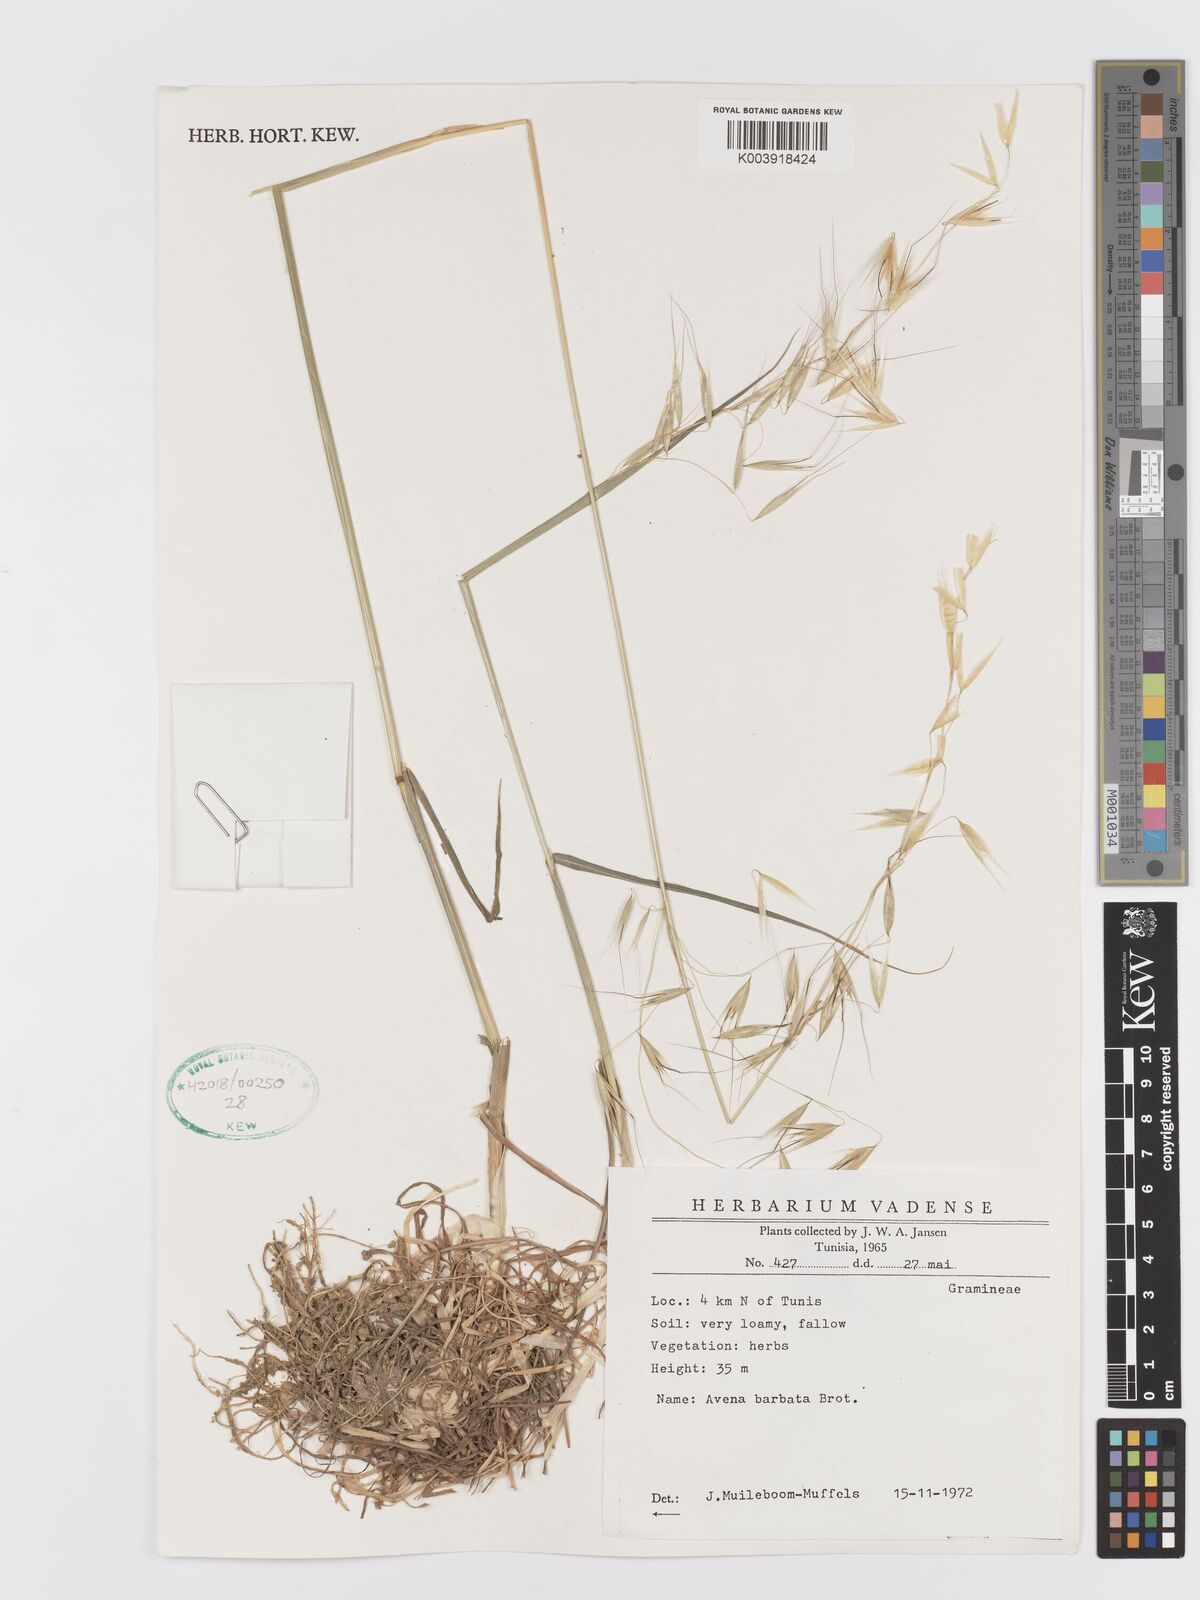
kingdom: Plantae
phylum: Tracheophyta
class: Liliopsida
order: Poales
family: Poaceae
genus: Avena
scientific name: Avena
